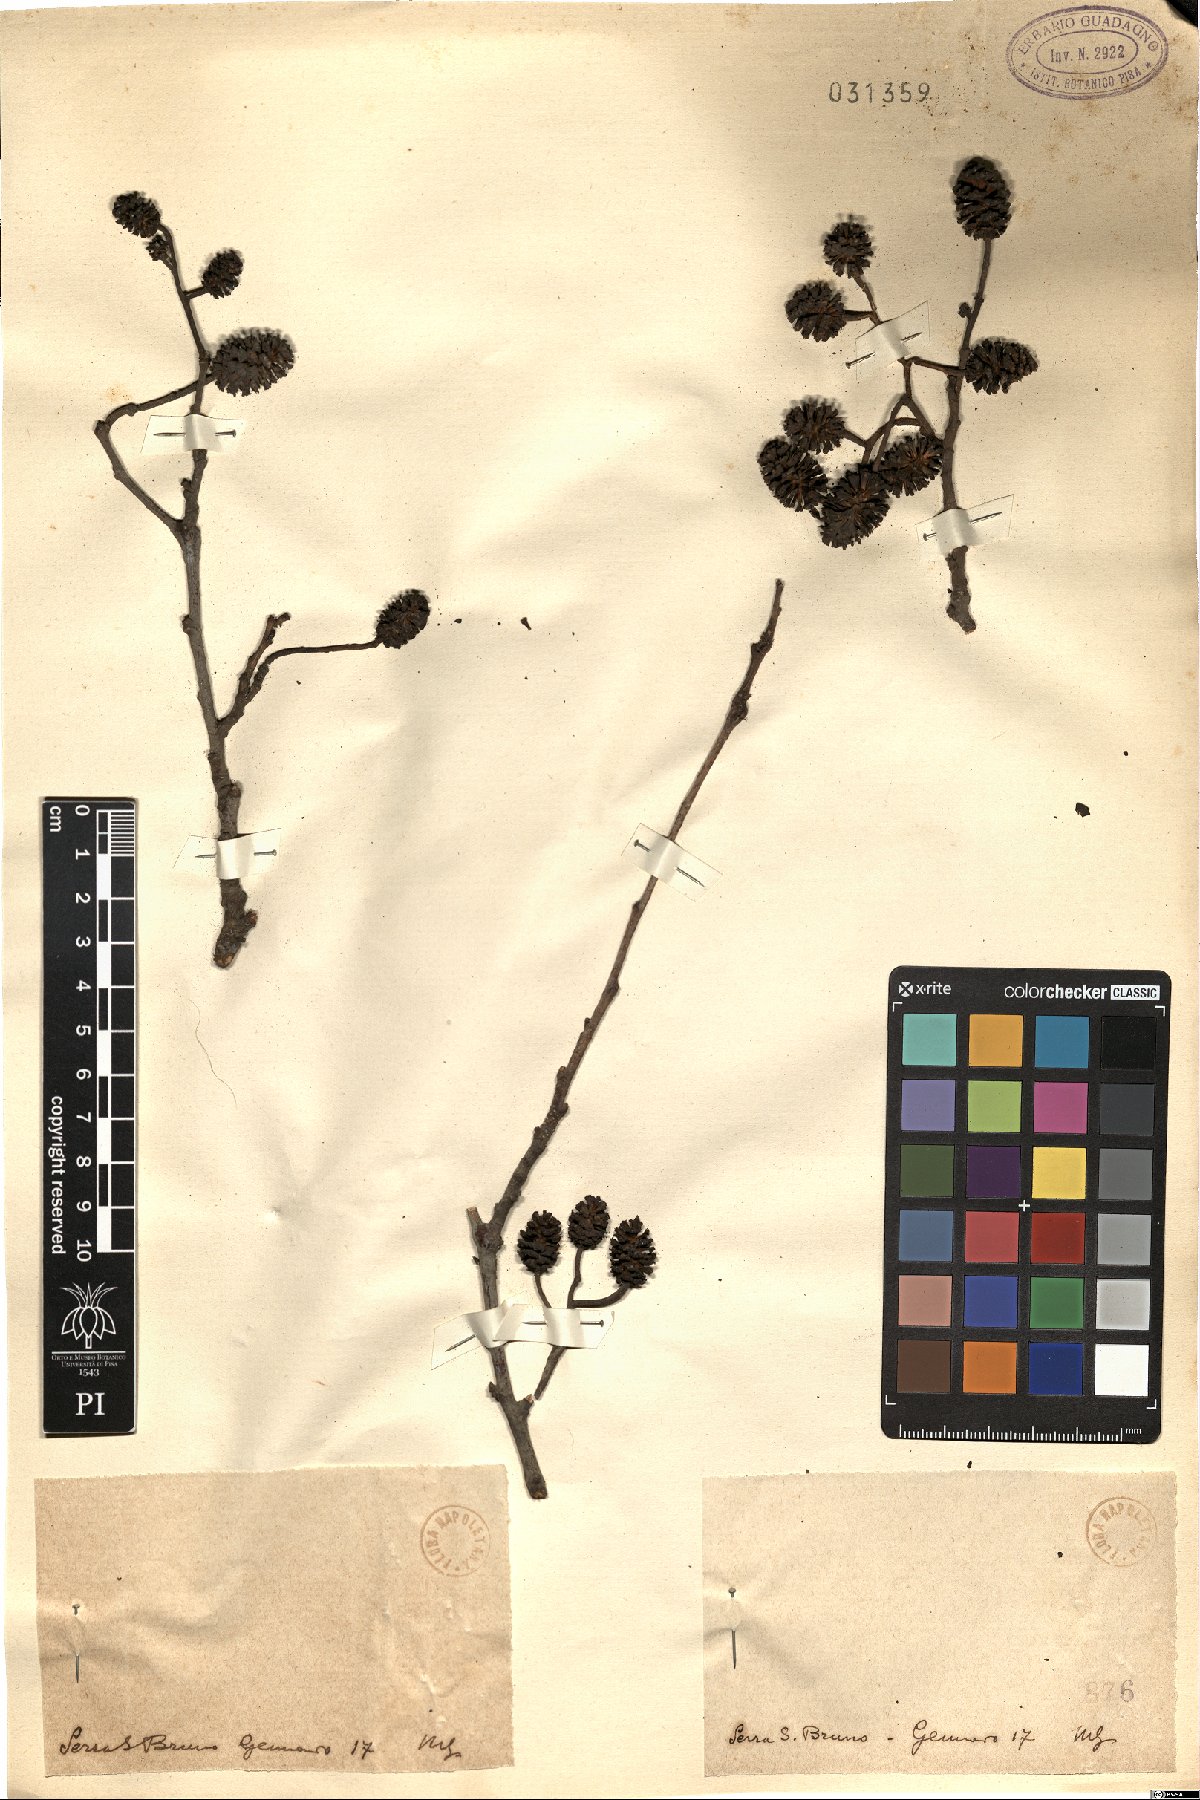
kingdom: Plantae
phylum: Tracheophyta
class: Magnoliopsida
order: Fagales
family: Betulaceae
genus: Alnus
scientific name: Alnus
